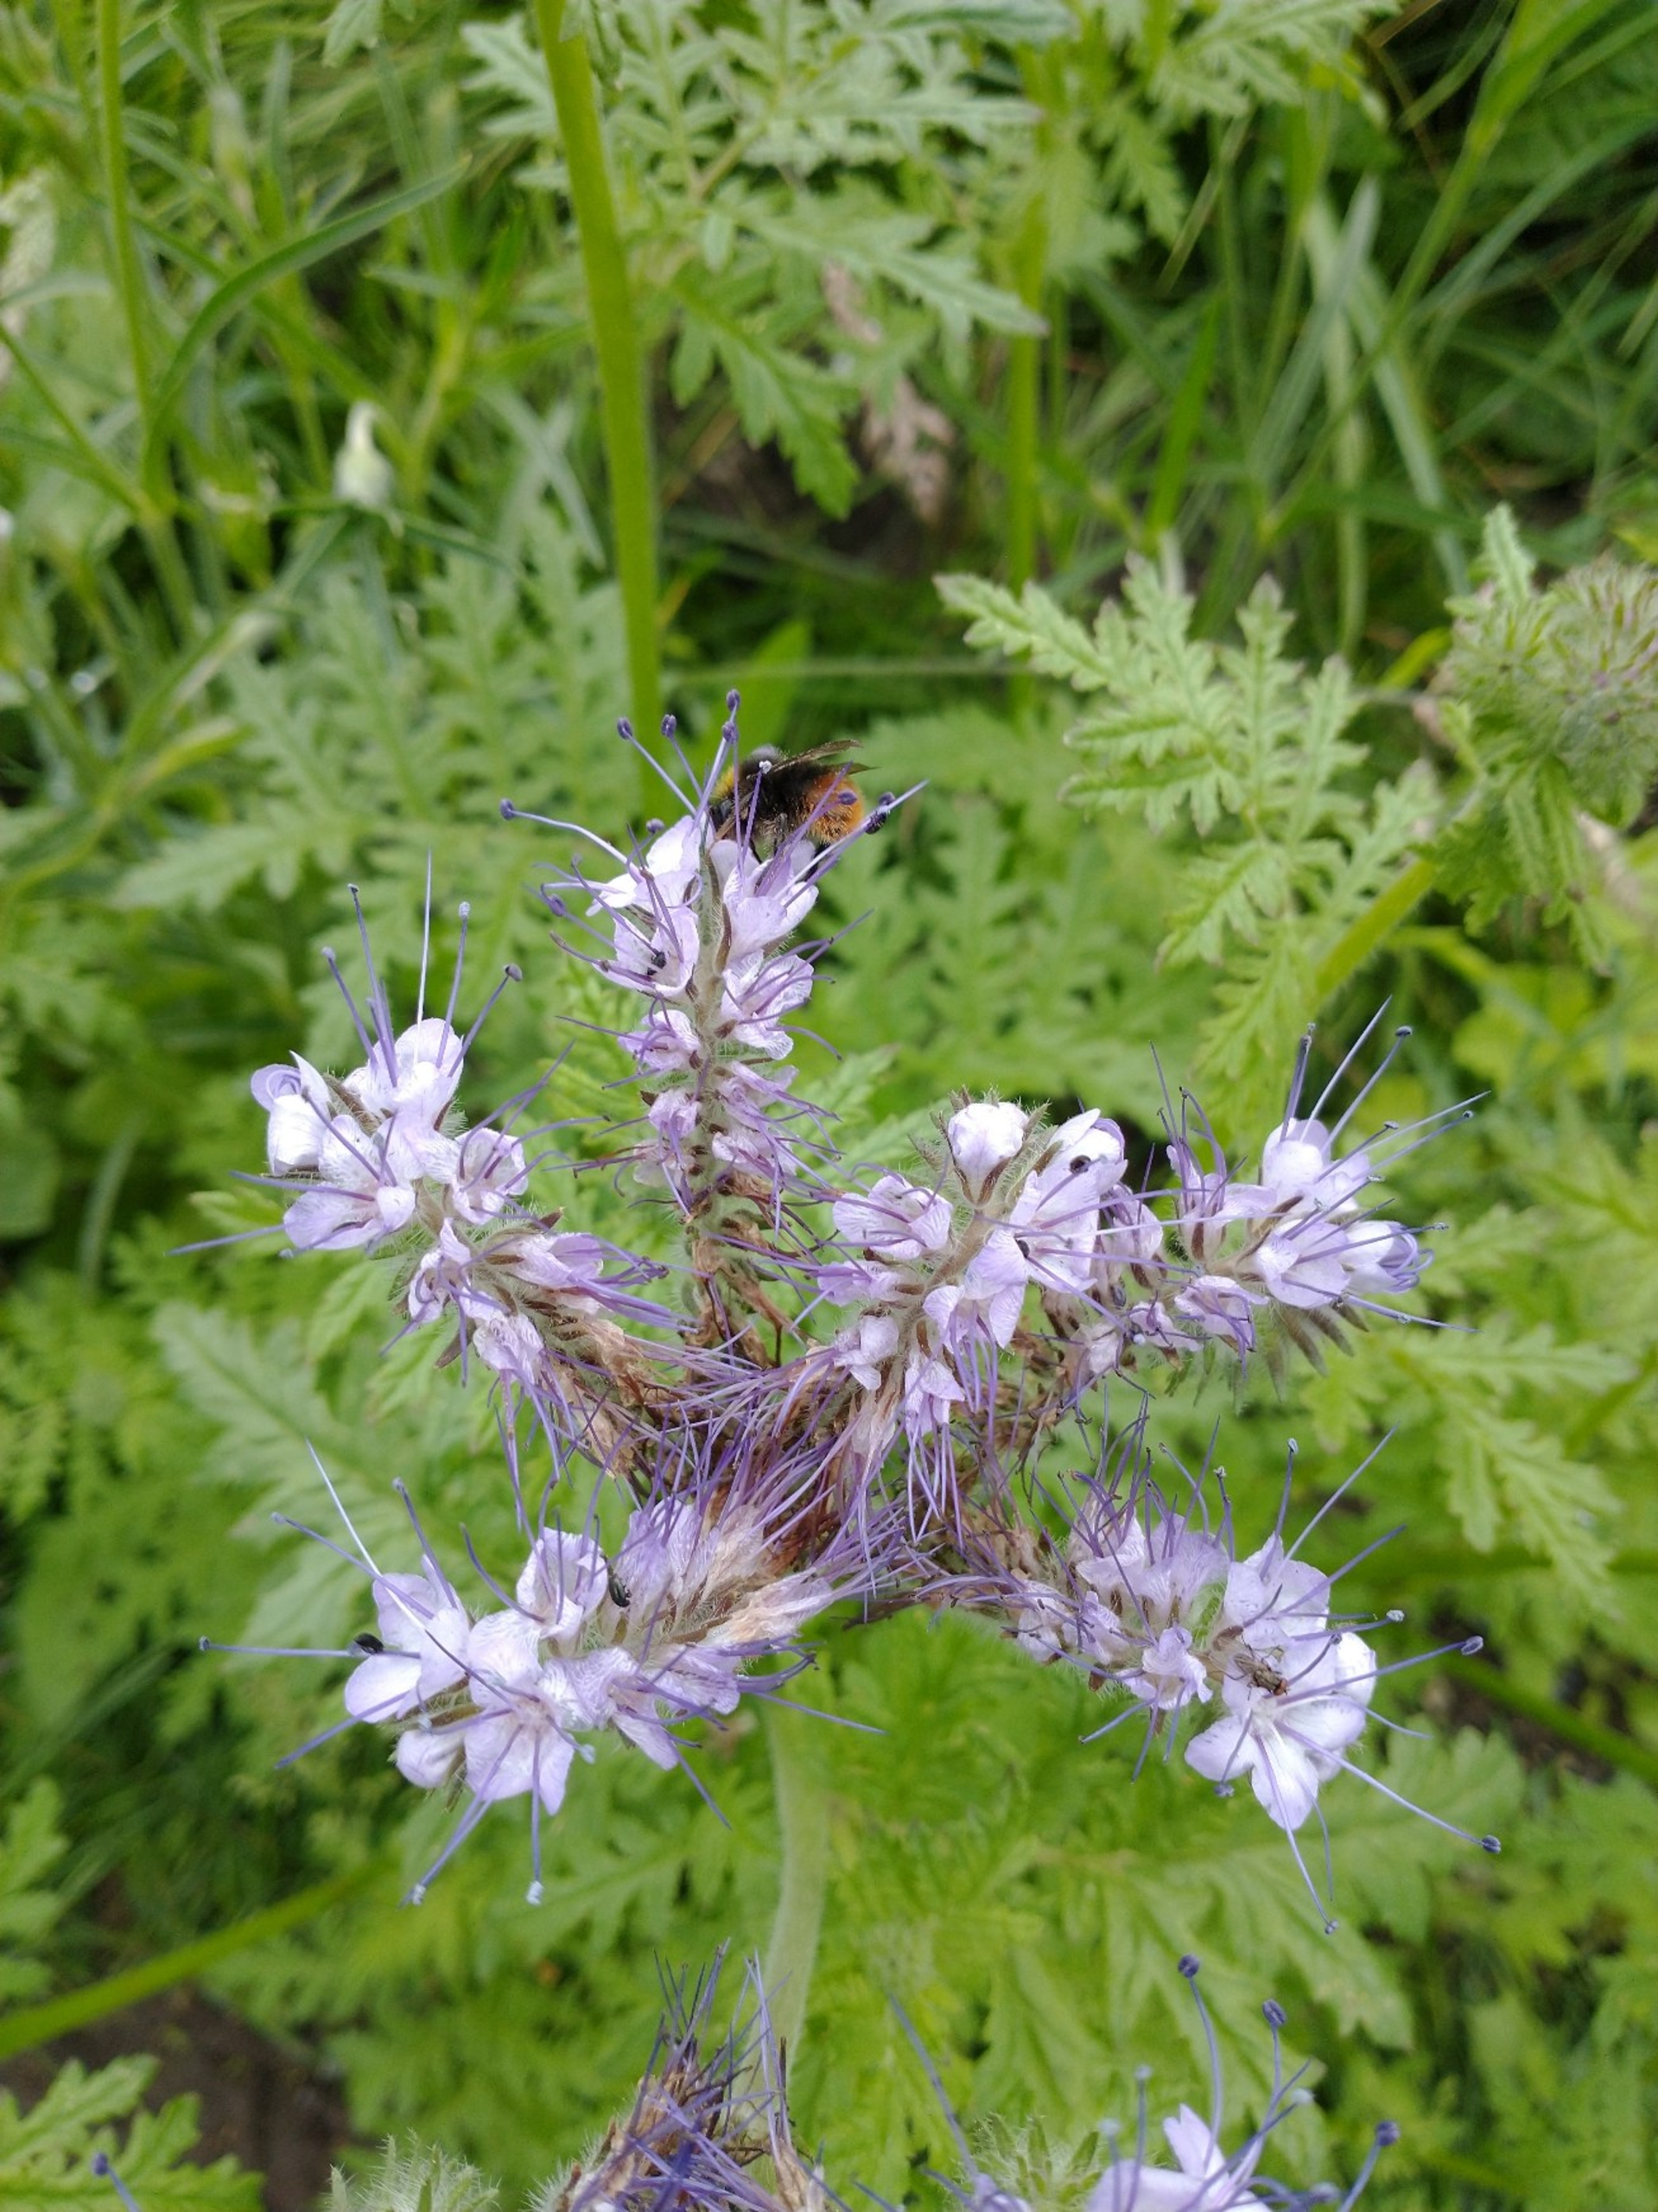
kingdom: Plantae
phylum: Tracheophyta
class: Magnoliopsida
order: Boraginales
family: Hydrophyllaceae
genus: Phacelia
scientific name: Phacelia tanacetifolia
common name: Honningurt
